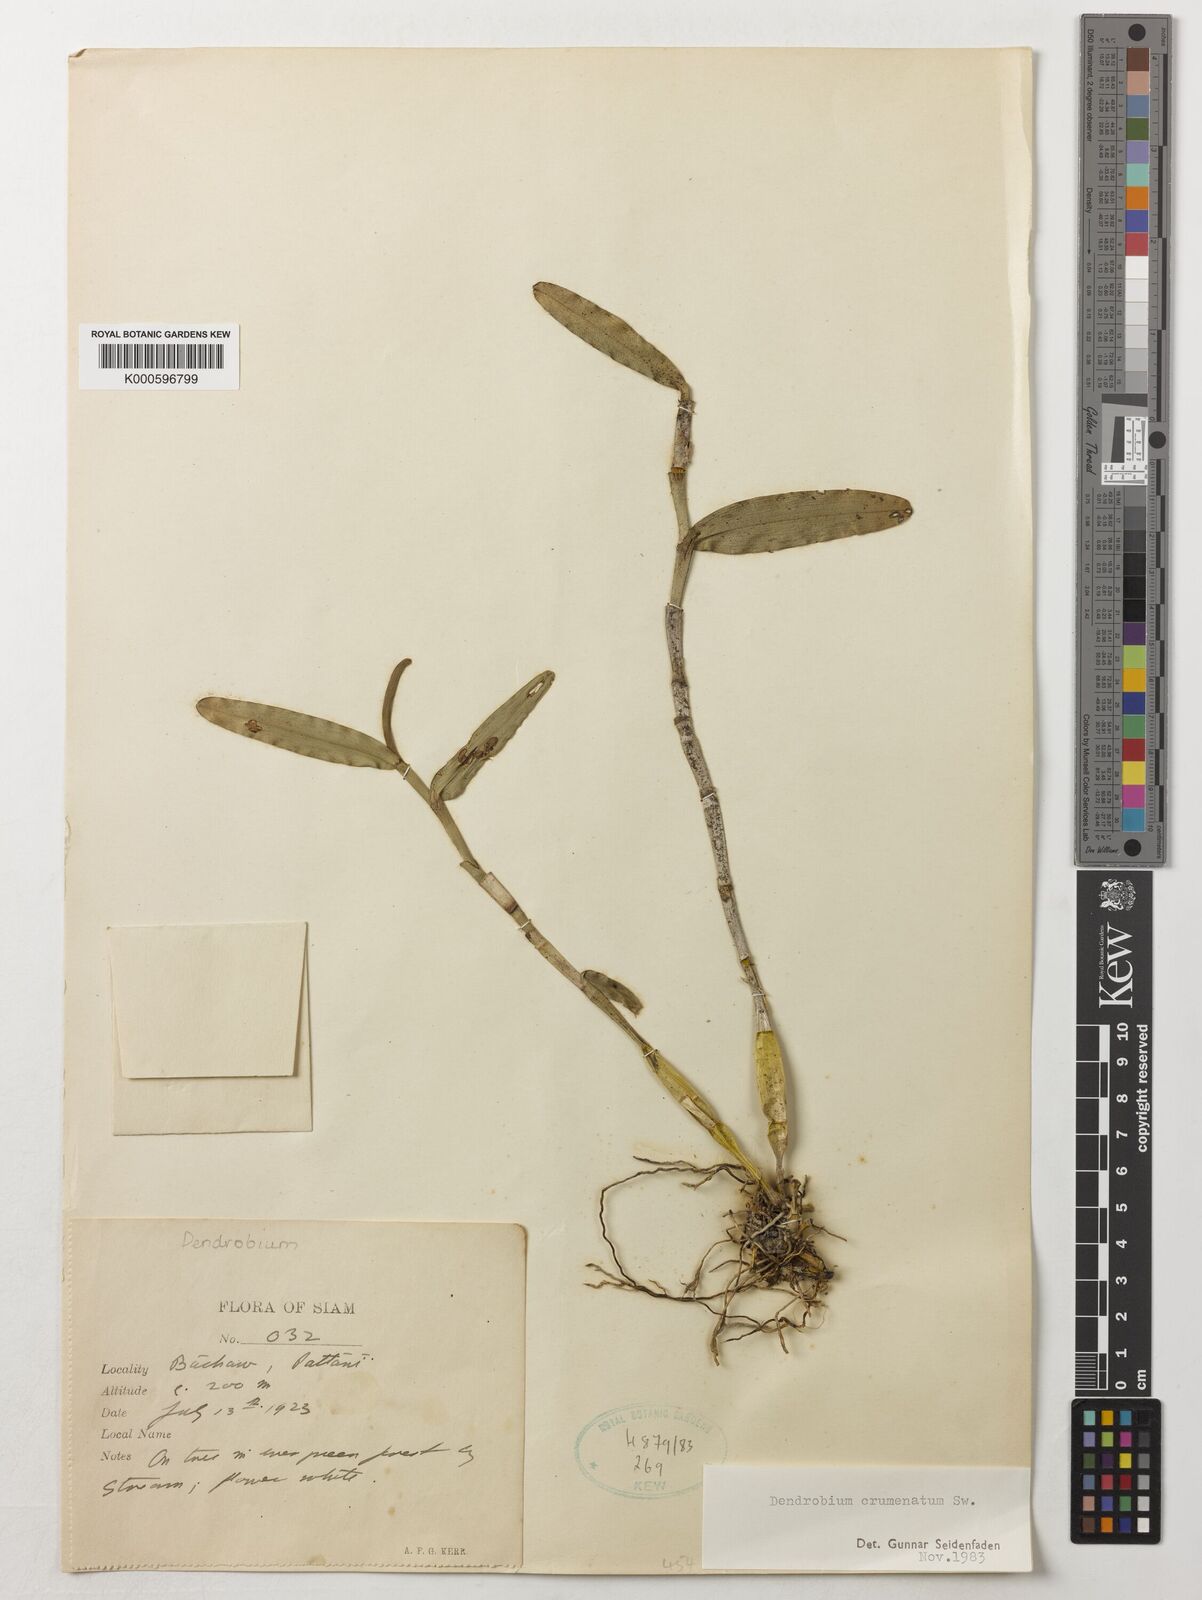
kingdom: Plantae
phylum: Tracheophyta
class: Liliopsida
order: Asparagales
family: Orchidaceae
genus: Dendrobium
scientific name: Dendrobium crumenatum
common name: Orchid
